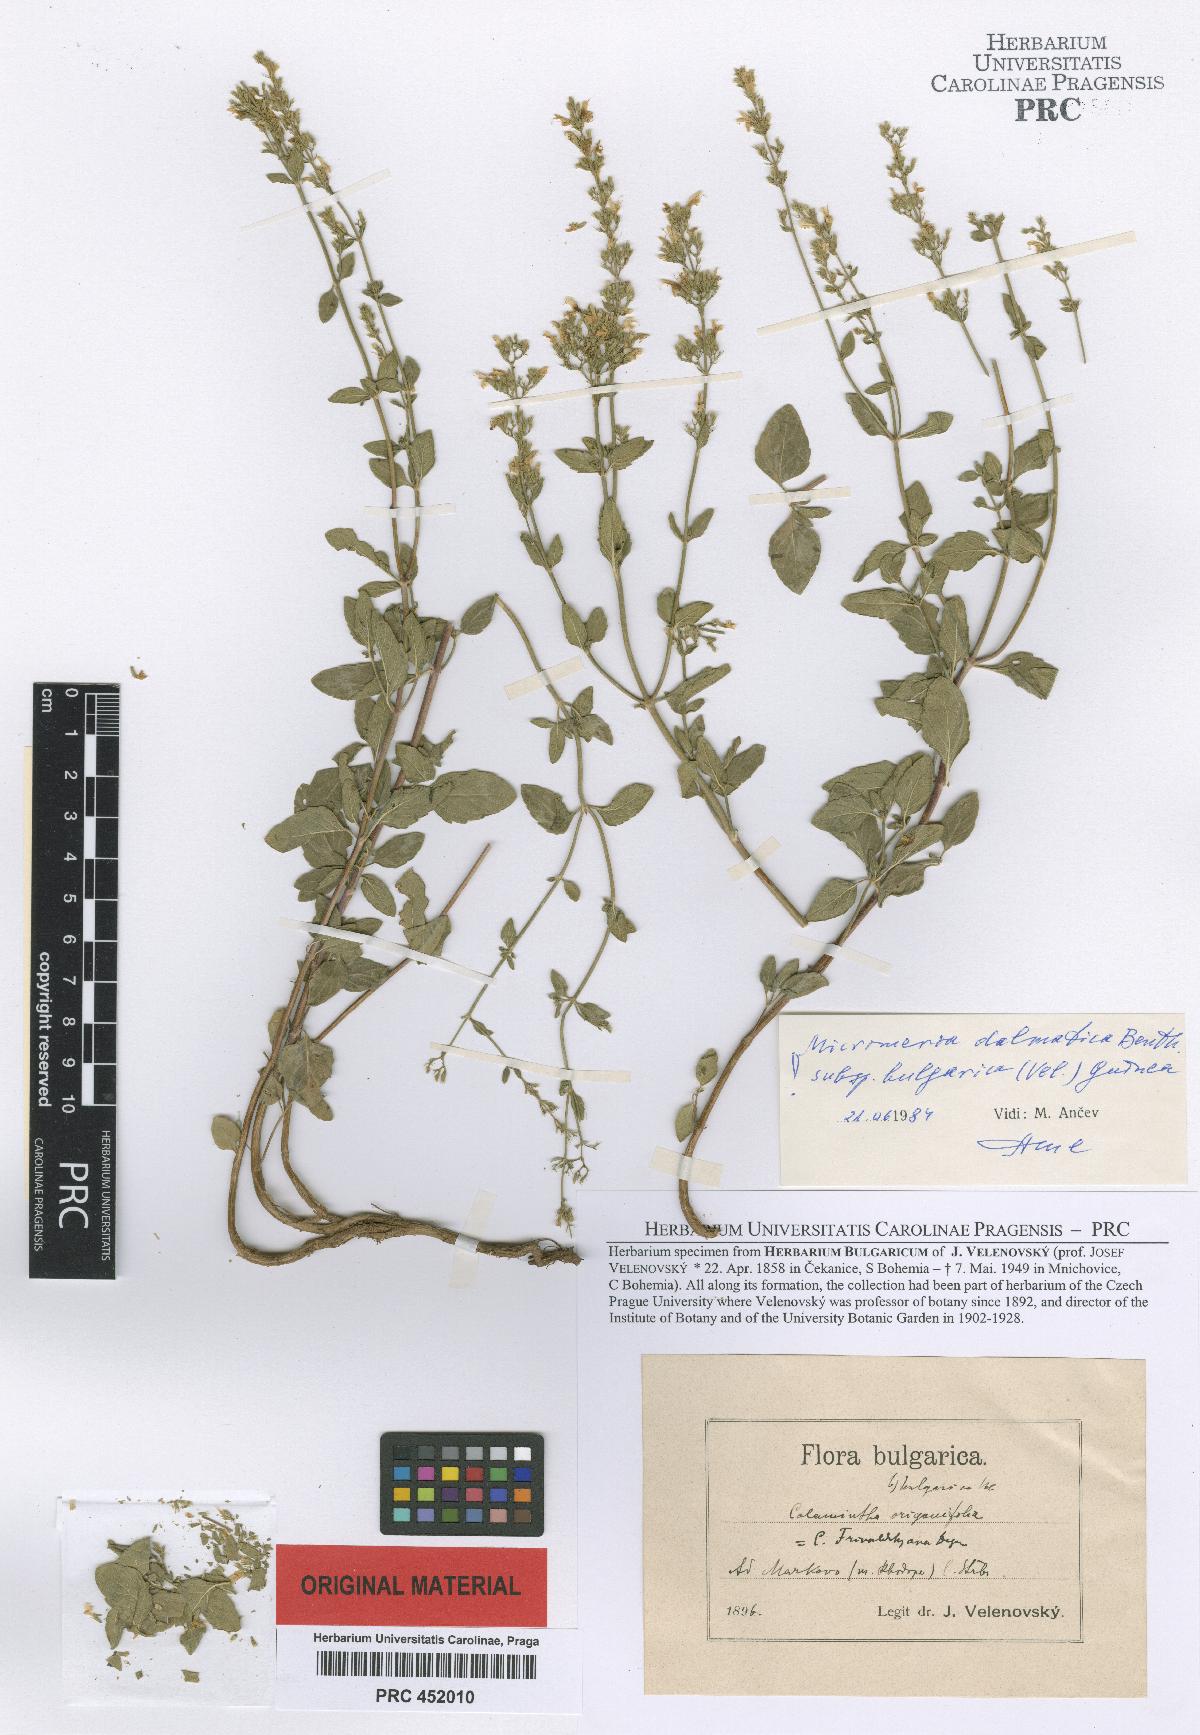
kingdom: Plantae
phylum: Tracheophyta
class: Magnoliopsida
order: Lamiales
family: Lamiaceae
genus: Clinopodium
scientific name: Clinopodium dalmaticum
